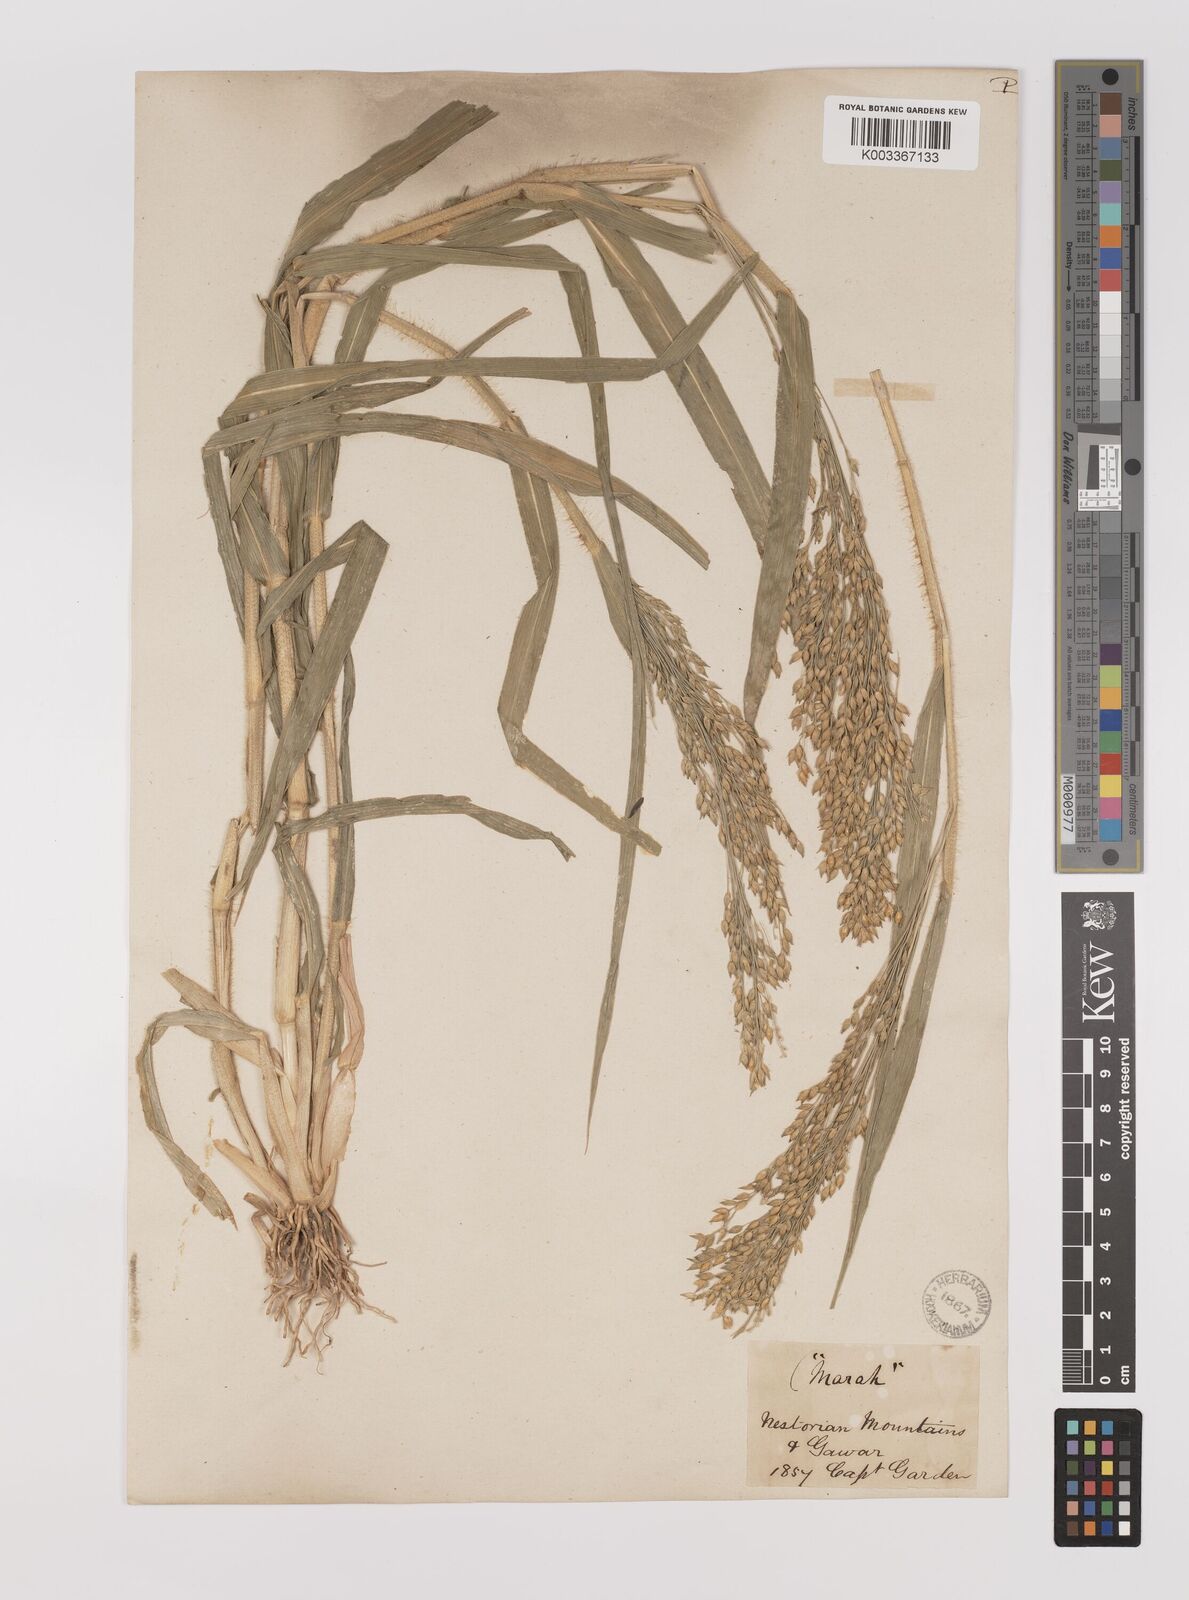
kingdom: Plantae
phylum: Tracheophyta
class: Liliopsida
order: Poales
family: Poaceae
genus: Panicum
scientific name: Panicum miliaceum
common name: Common millet
